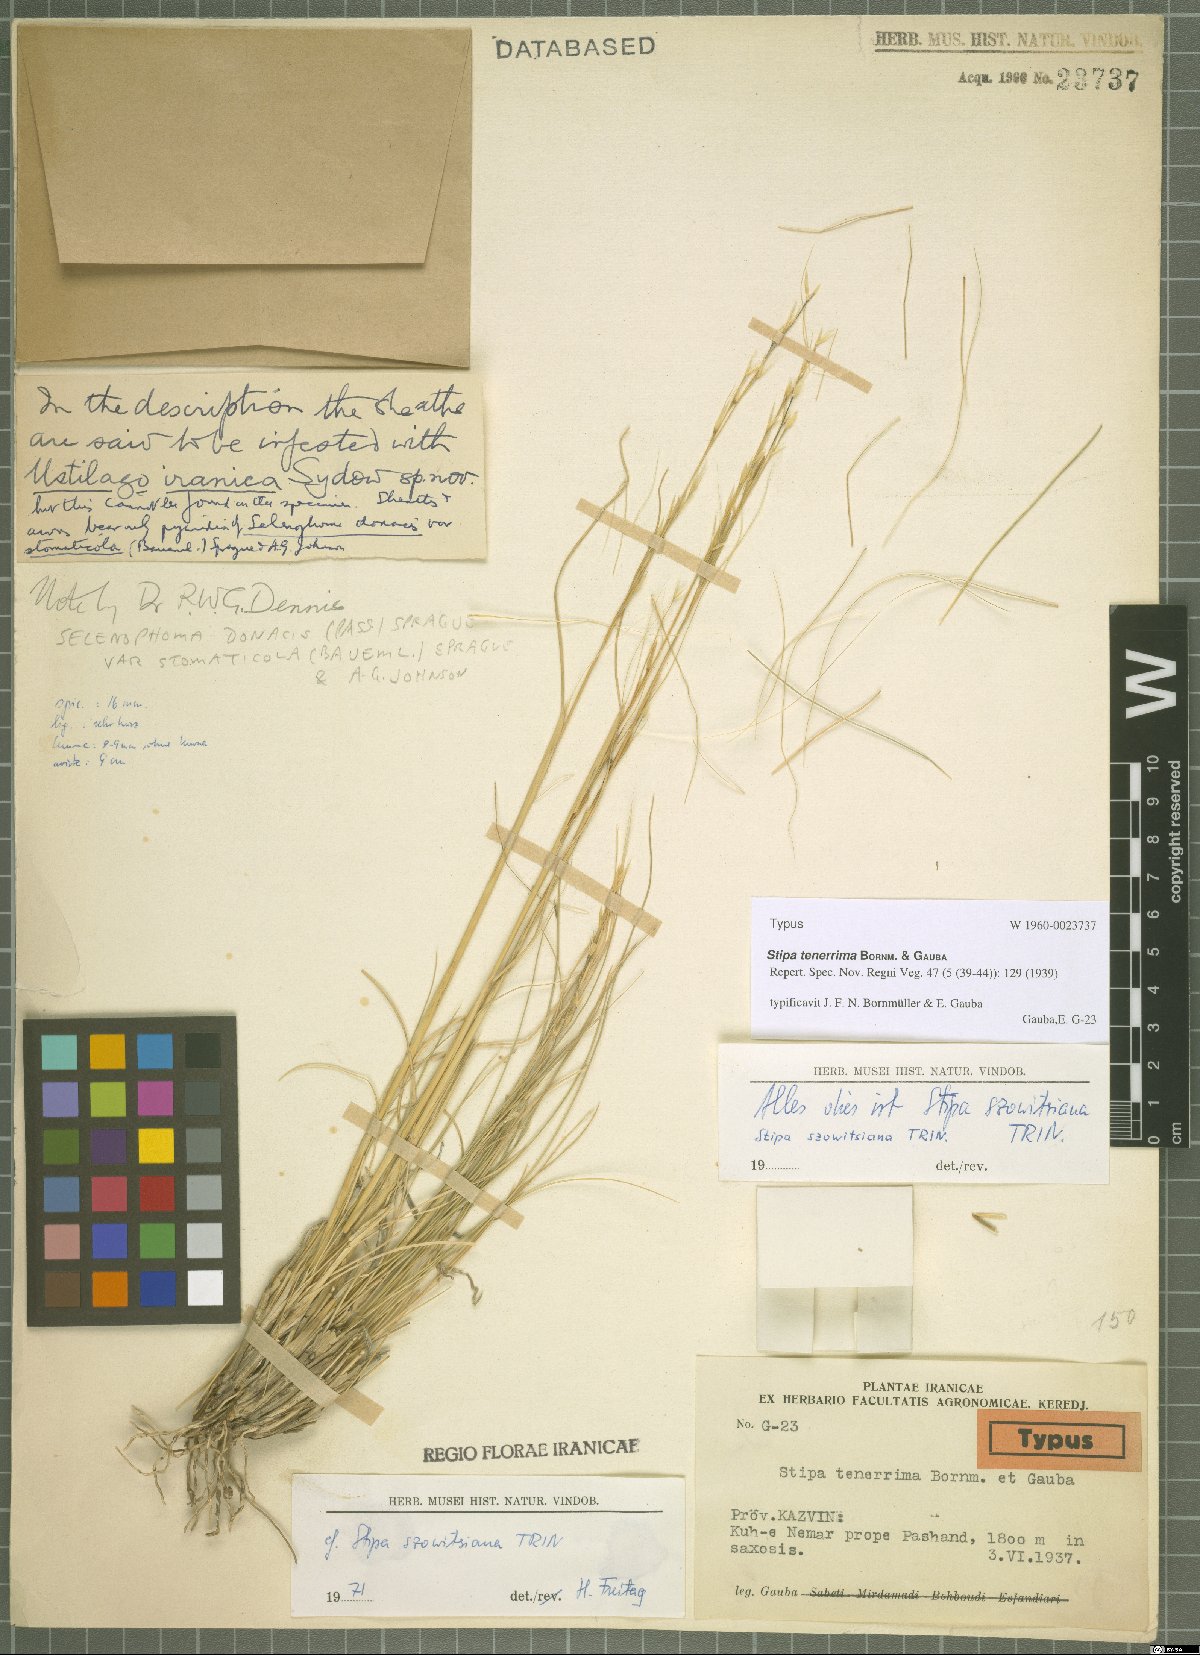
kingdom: Plantae
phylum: Tracheophyta
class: Liliopsida
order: Poales
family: Poaceae
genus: Stipa
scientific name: Stipa tenerrima
